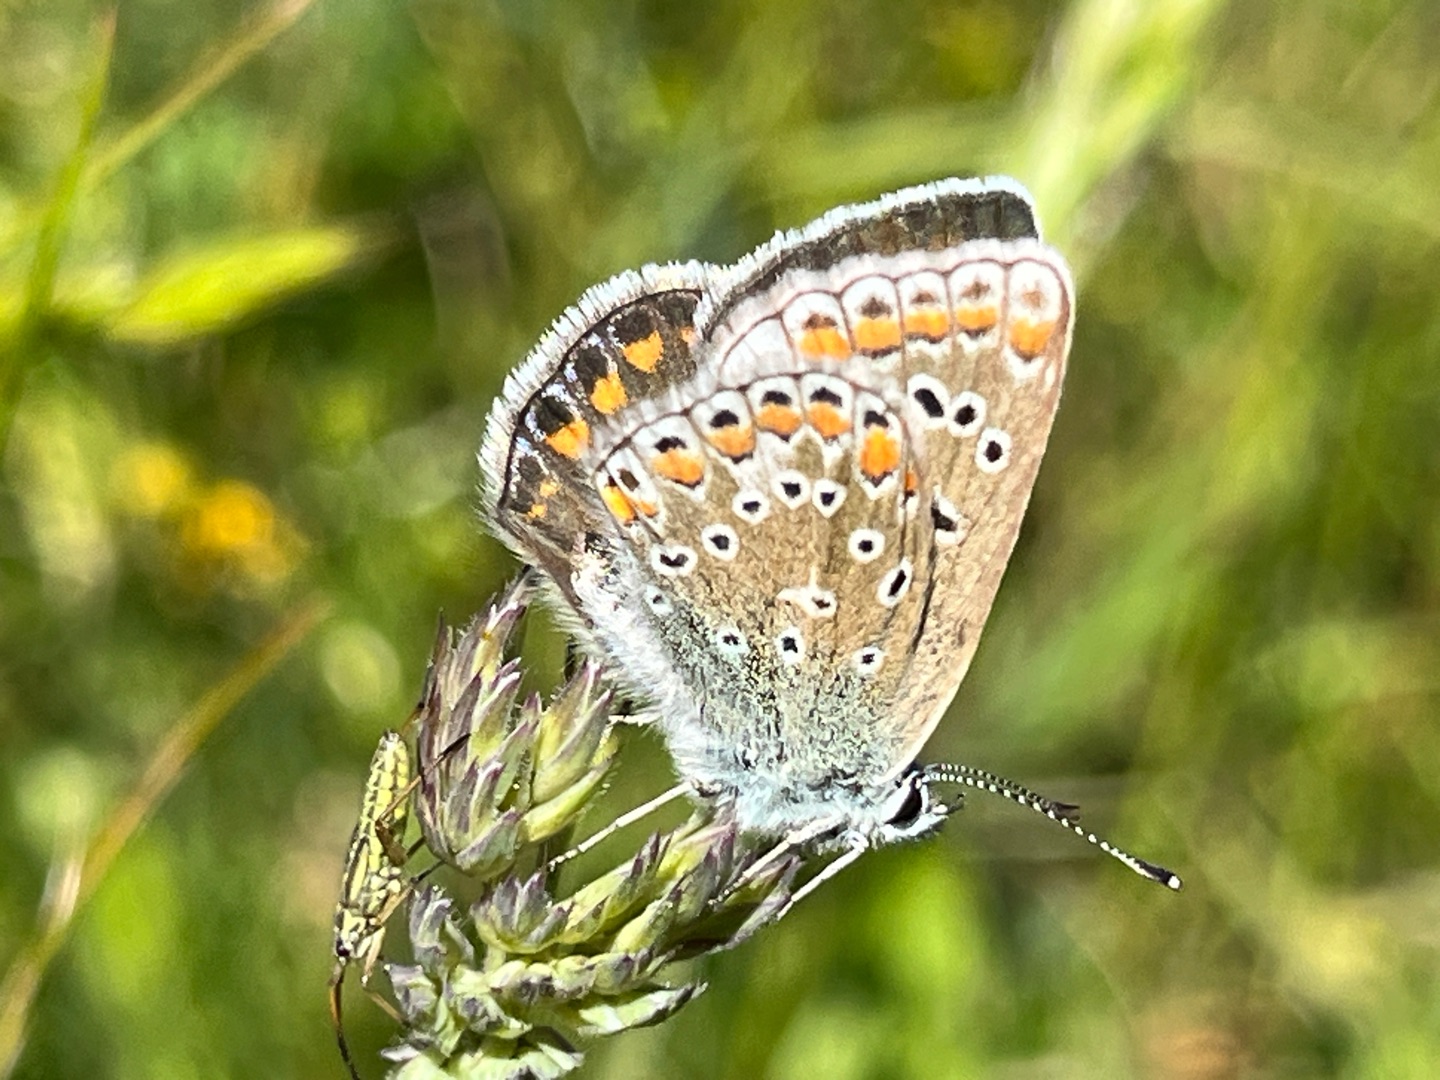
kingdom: Animalia
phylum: Arthropoda
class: Insecta
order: Lepidoptera
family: Lycaenidae
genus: Aricia
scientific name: Aricia agestis
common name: Rødplettet blåfugl
